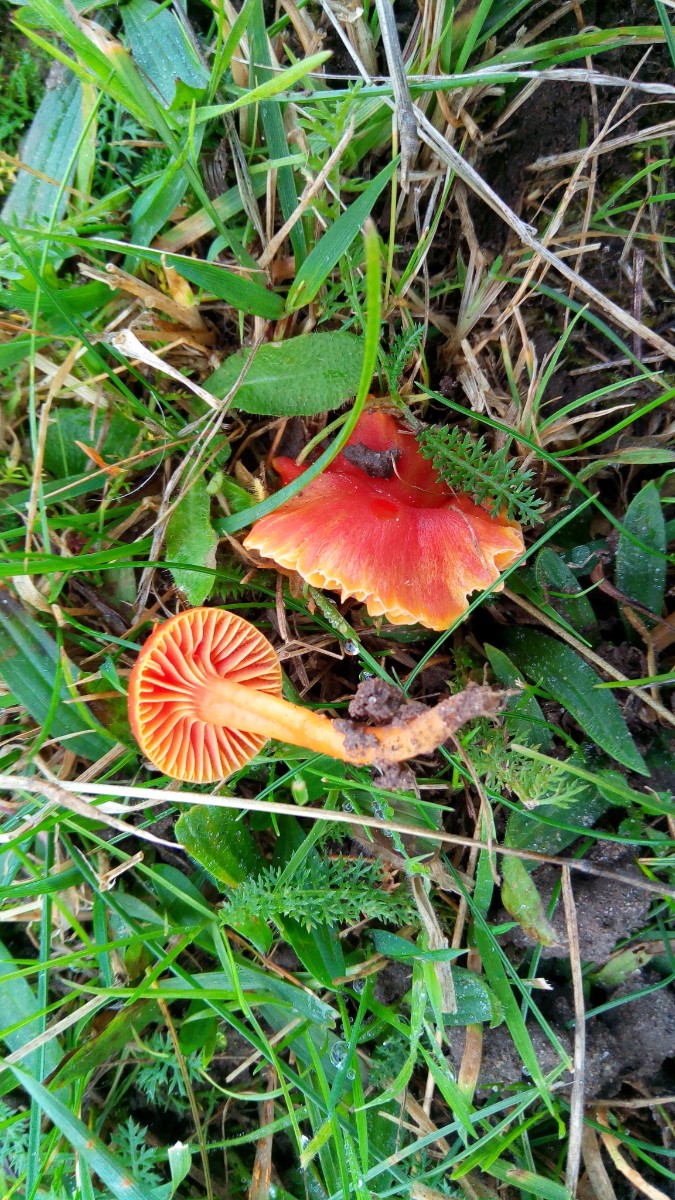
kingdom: Fungi
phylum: Basidiomycota
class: Agaricomycetes
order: Agaricales
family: Hygrophoraceae
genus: Hygrocybe
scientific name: Hygrocybe coccinea
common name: cinnober-vokshat
